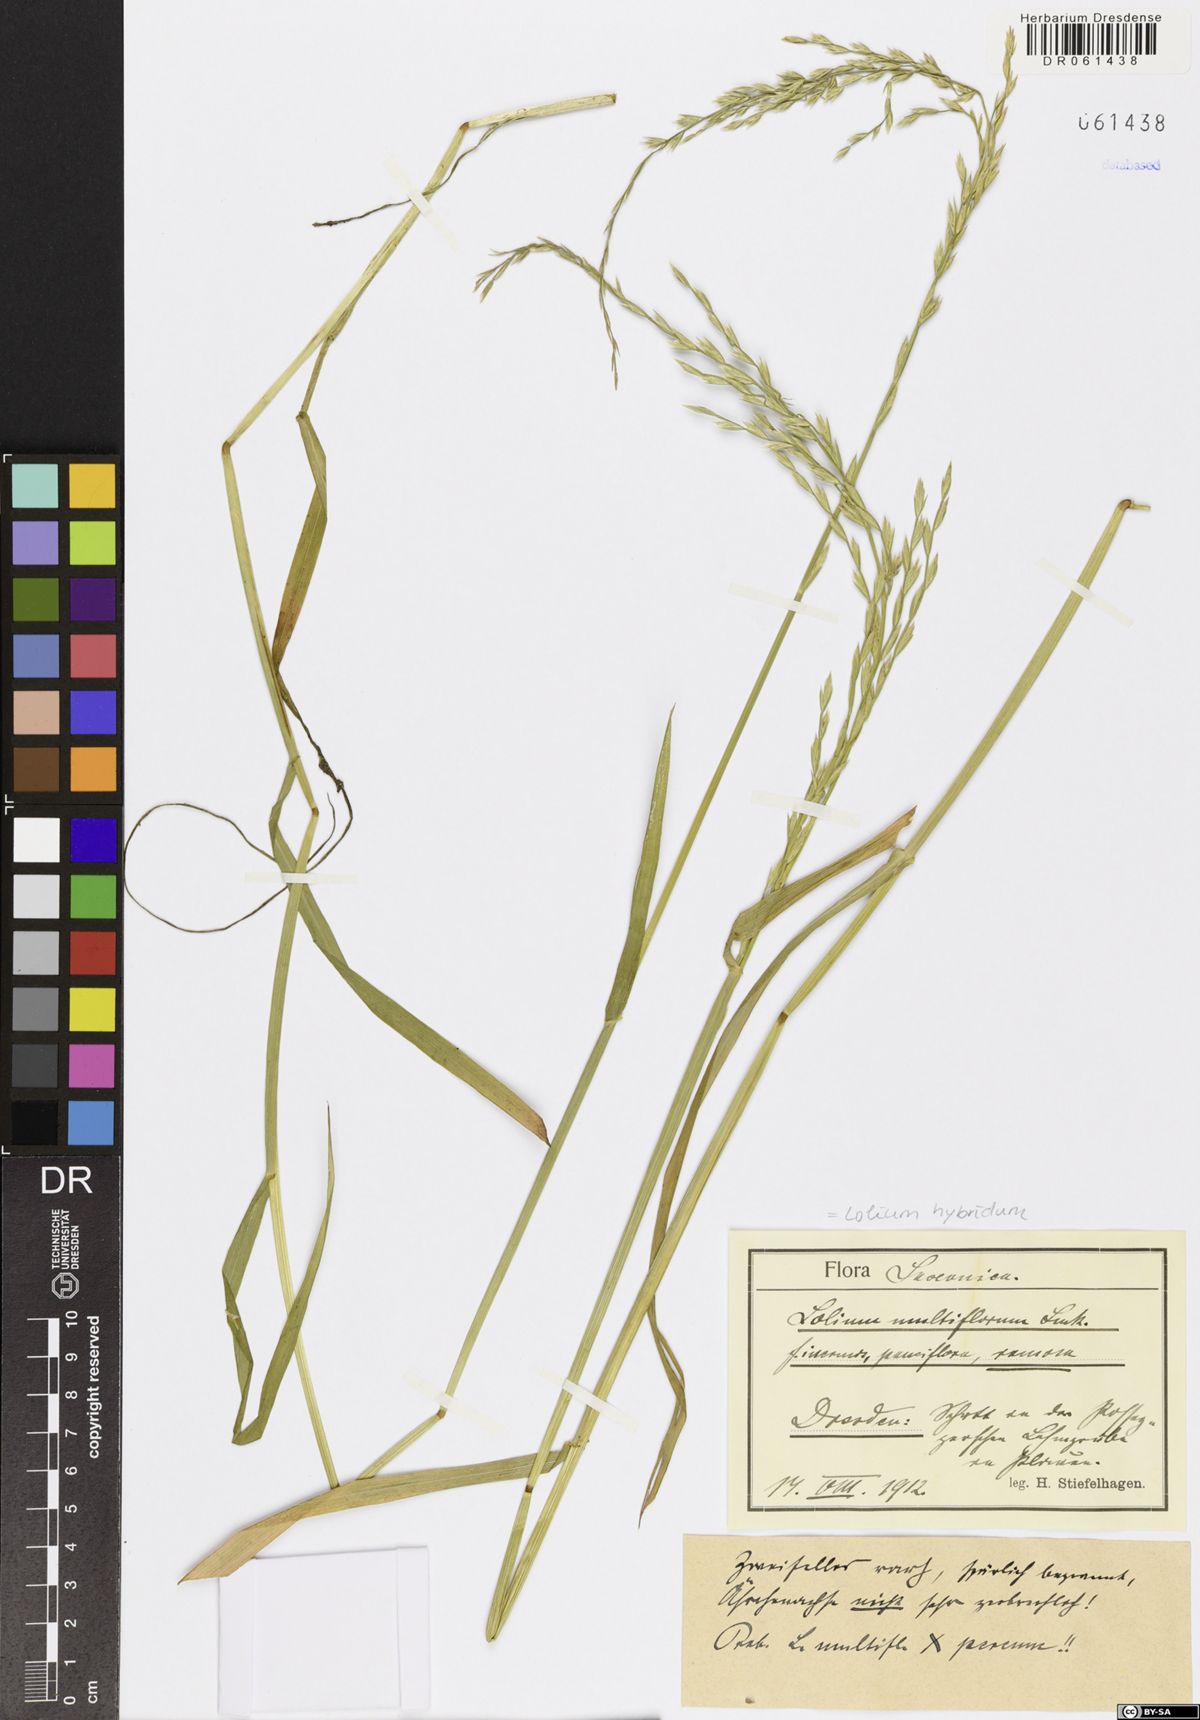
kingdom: Plantae
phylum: Tracheophyta
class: Liliopsida
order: Poales
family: Poaceae
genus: Lolium
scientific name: Lolium boucheanum
